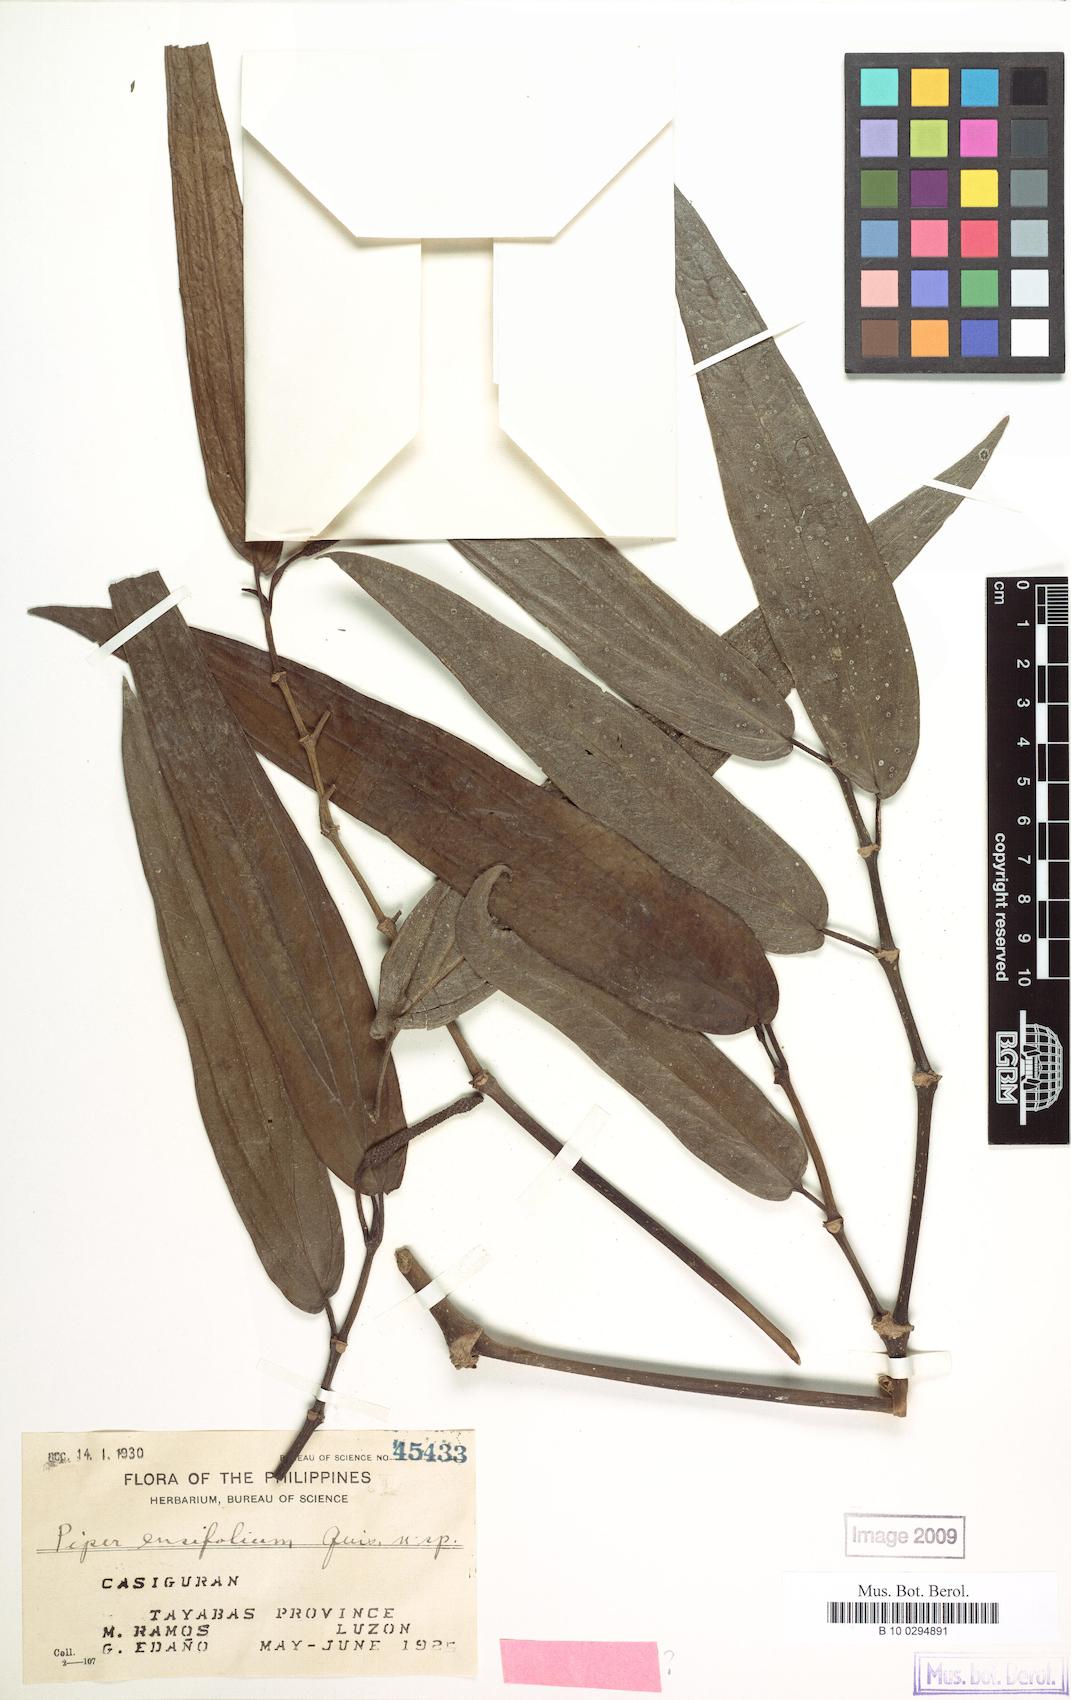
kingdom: Plantae
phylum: Tracheophyta
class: Magnoliopsida
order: Piperales
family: Piperaceae
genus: Piper
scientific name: Piper ensifolium
